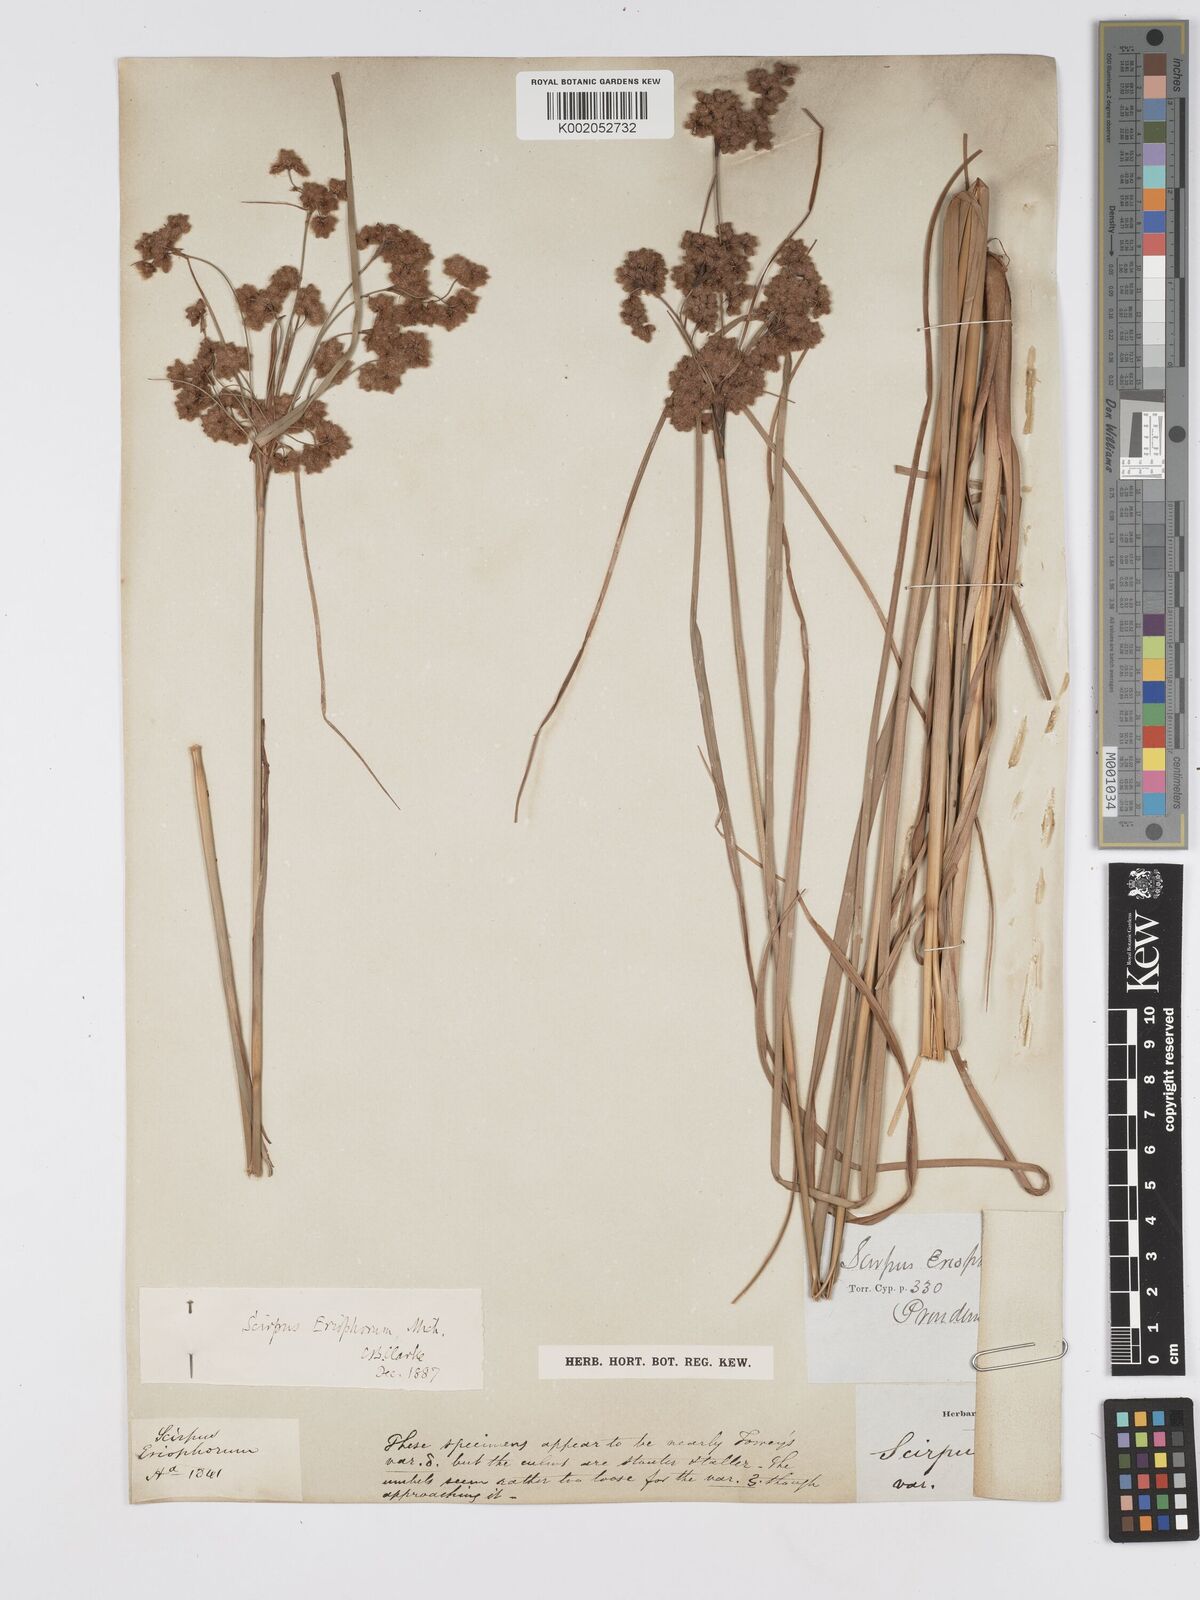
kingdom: Plantae
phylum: Tracheophyta
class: Liliopsida
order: Poales
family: Cyperaceae
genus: Scirpus
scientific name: Scirpus cyperinus
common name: Black-sheathed bulrush
